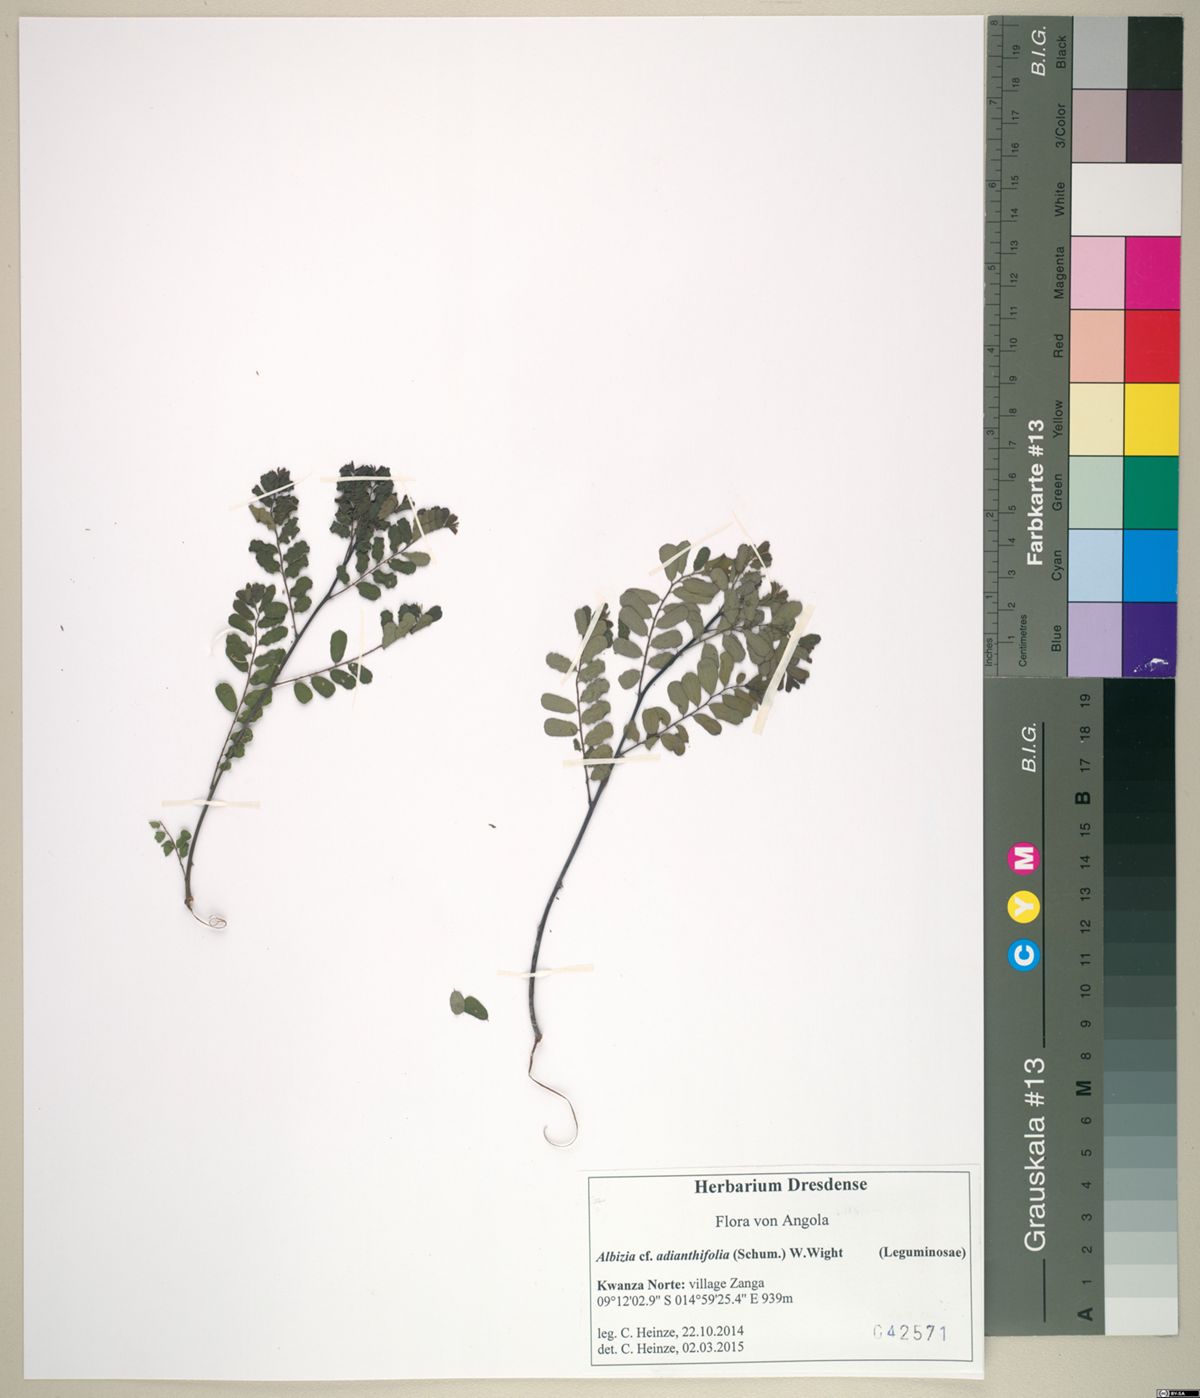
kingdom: Plantae
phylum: Tracheophyta
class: Magnoliopsida
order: Malpighiales
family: Phyllanthaceae
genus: Phyllanthus
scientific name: Phyllanthus
